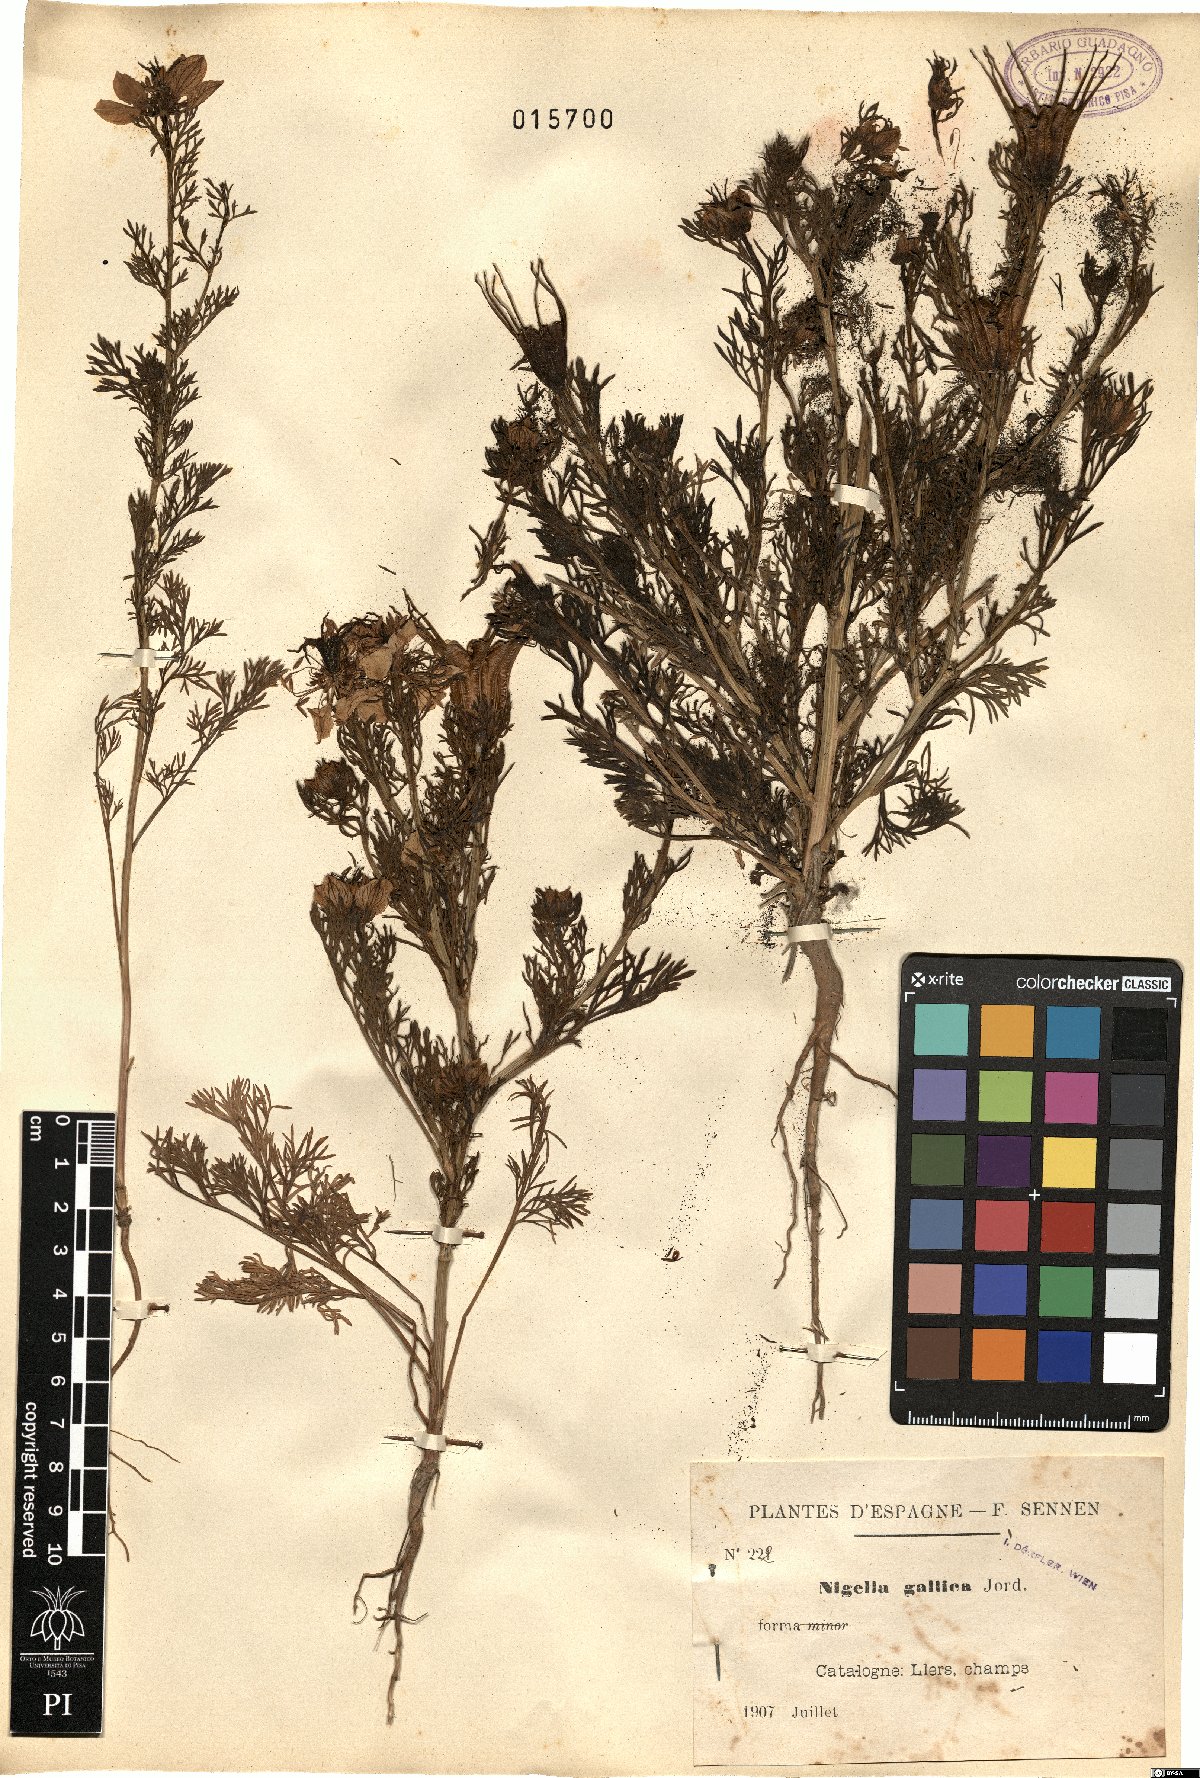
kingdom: Plantae
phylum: Tracheophyta
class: Magnoliopsida
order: Ranunculales
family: Ranunculaceae
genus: Nigella
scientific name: Nigella gallica
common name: Pale fennel-flower
